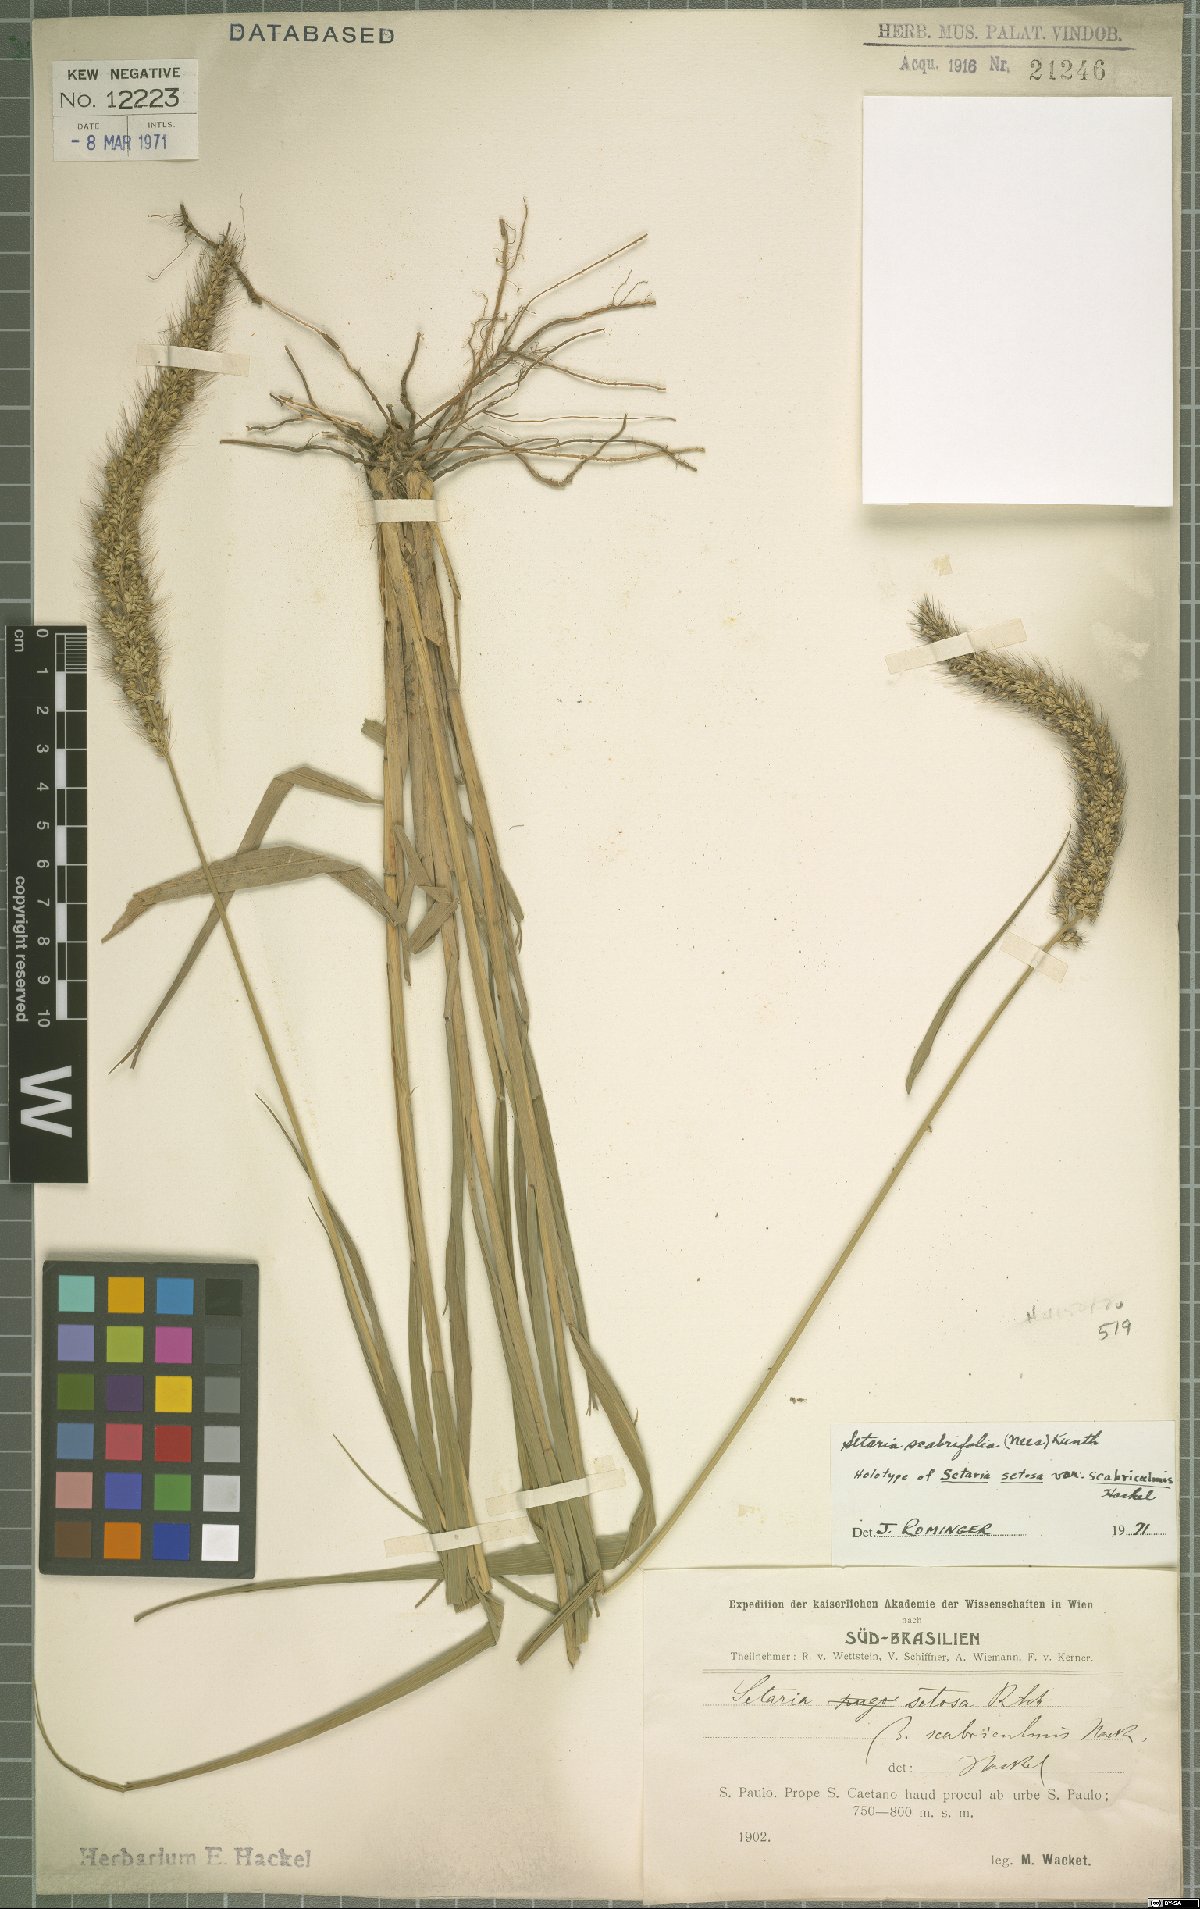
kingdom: Plantae
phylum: Tracheophyta
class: Liliopsida
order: Poales
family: Poaceae
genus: Setaria
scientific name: Setaria scabrifolia
